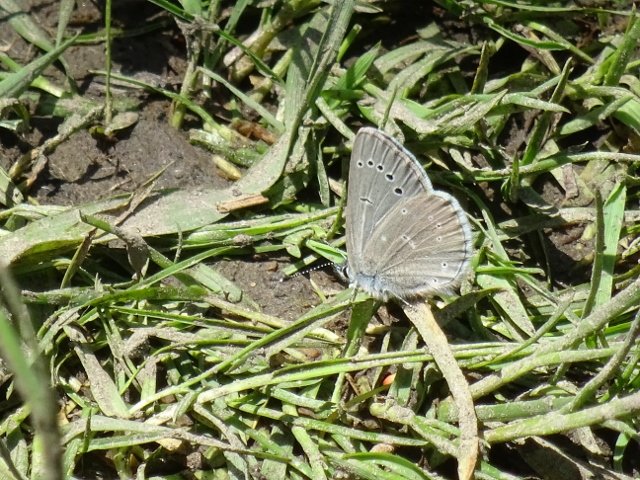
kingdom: Animalia
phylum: Arthropoda
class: Insecta
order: Lepidoptera
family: Lycaenidae
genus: Glaucopsyche
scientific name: Glaucopsyche lygdamus
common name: Silvery Blue
